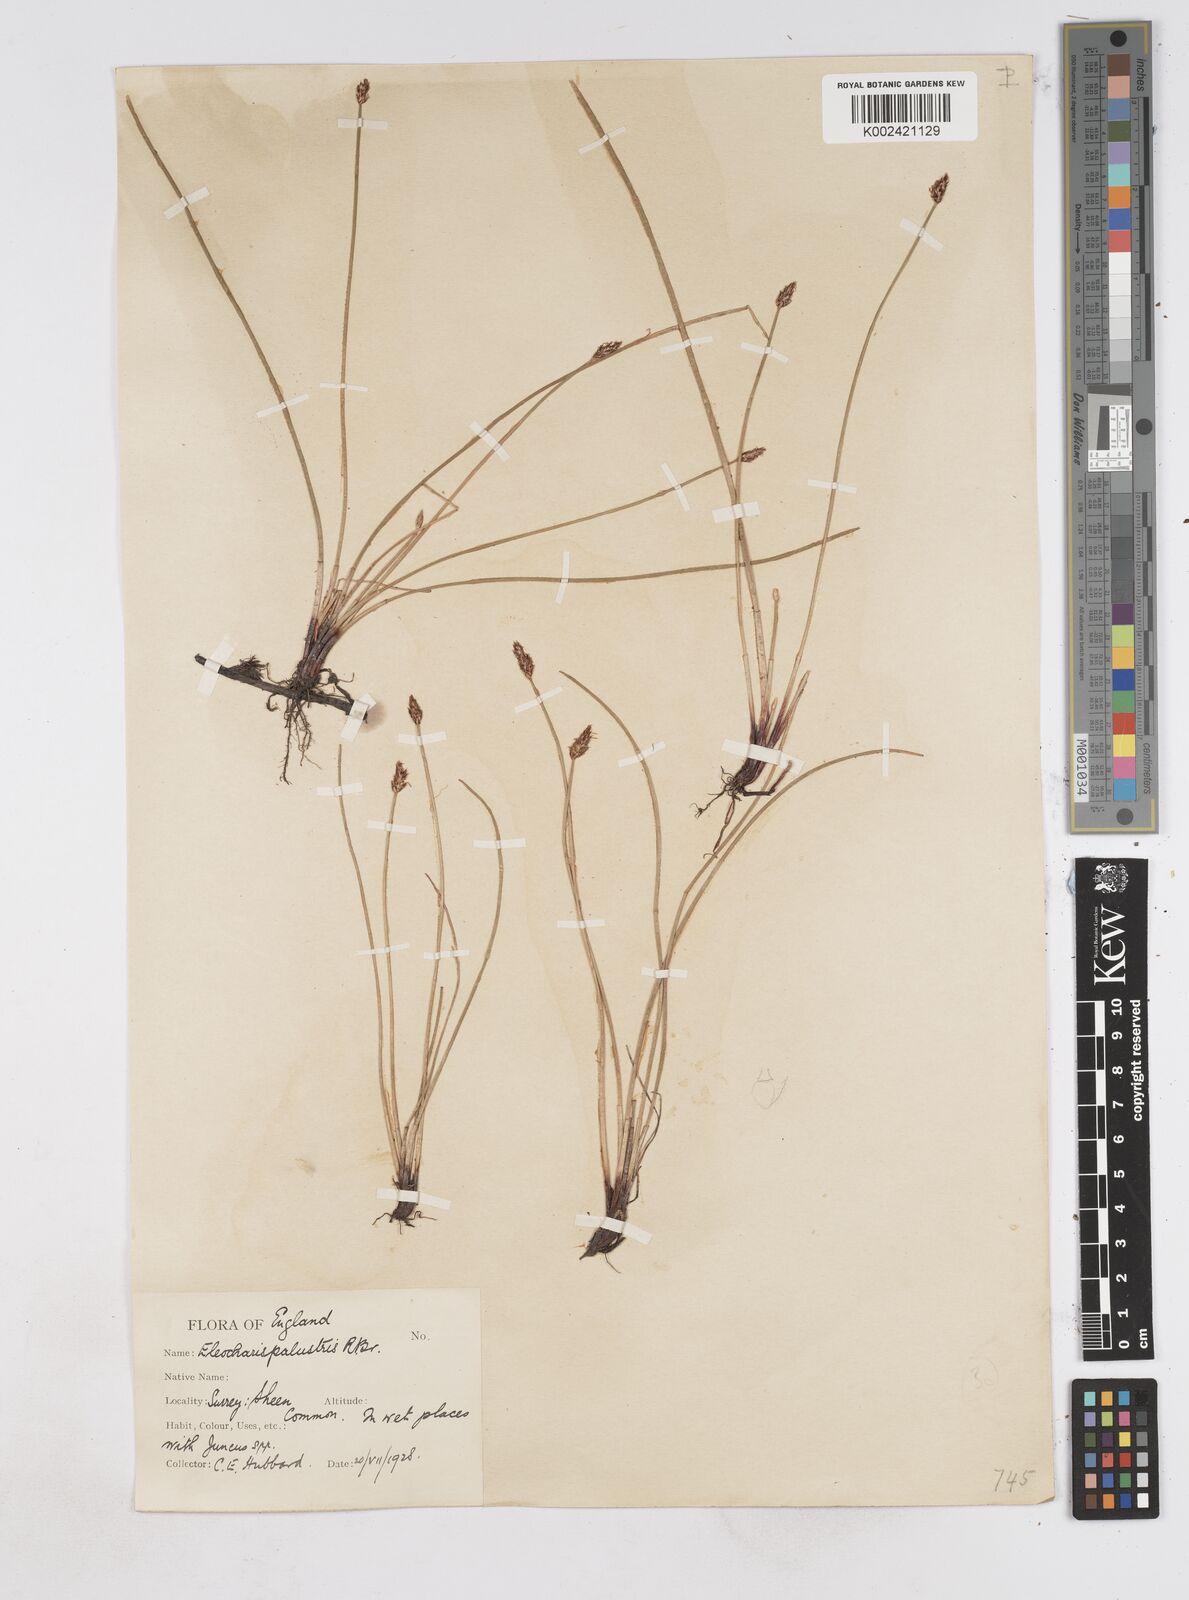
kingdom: Plantae
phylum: Tracheophyta
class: Liliopsida
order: Poales
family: Cyperaceae
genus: Eleocharis
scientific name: Eleocharis palustris
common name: Common spike-rush
